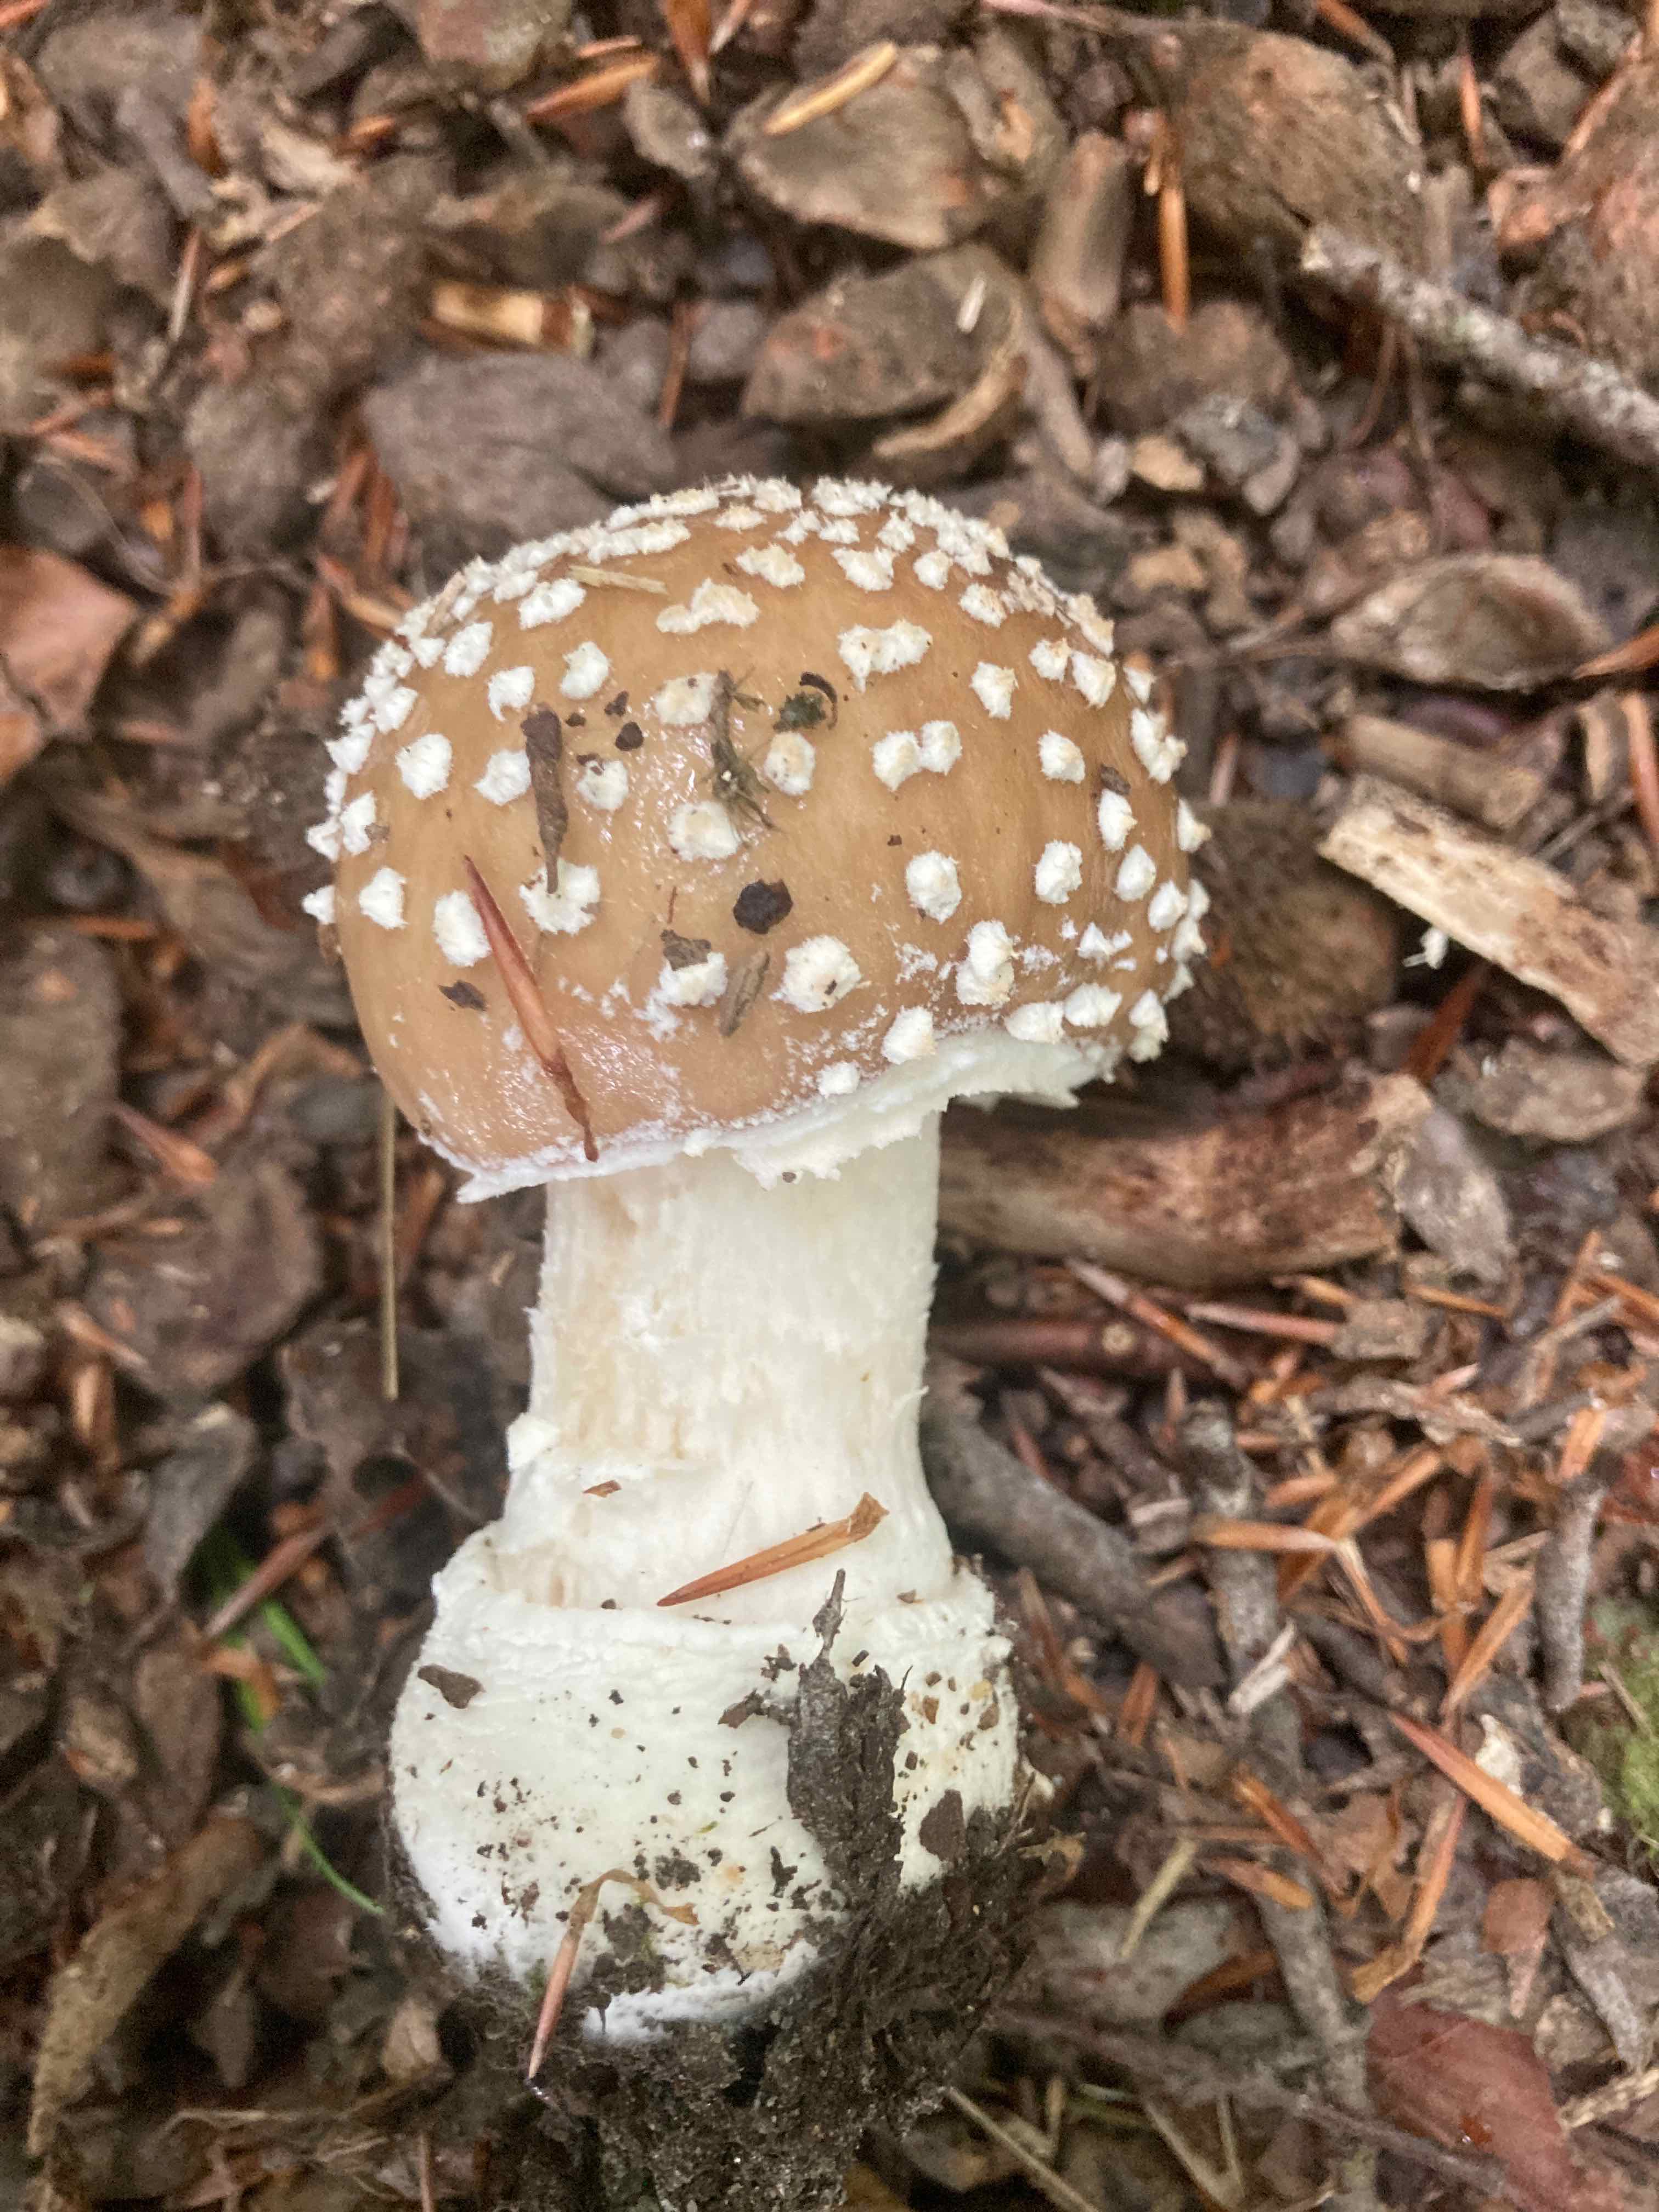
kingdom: Fungi
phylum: Basidiomycota
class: Agaricomycetes
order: Agaricales
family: Amanitaceae
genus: Amanita
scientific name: Amanita pantherina
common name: panter-fluesvamp
